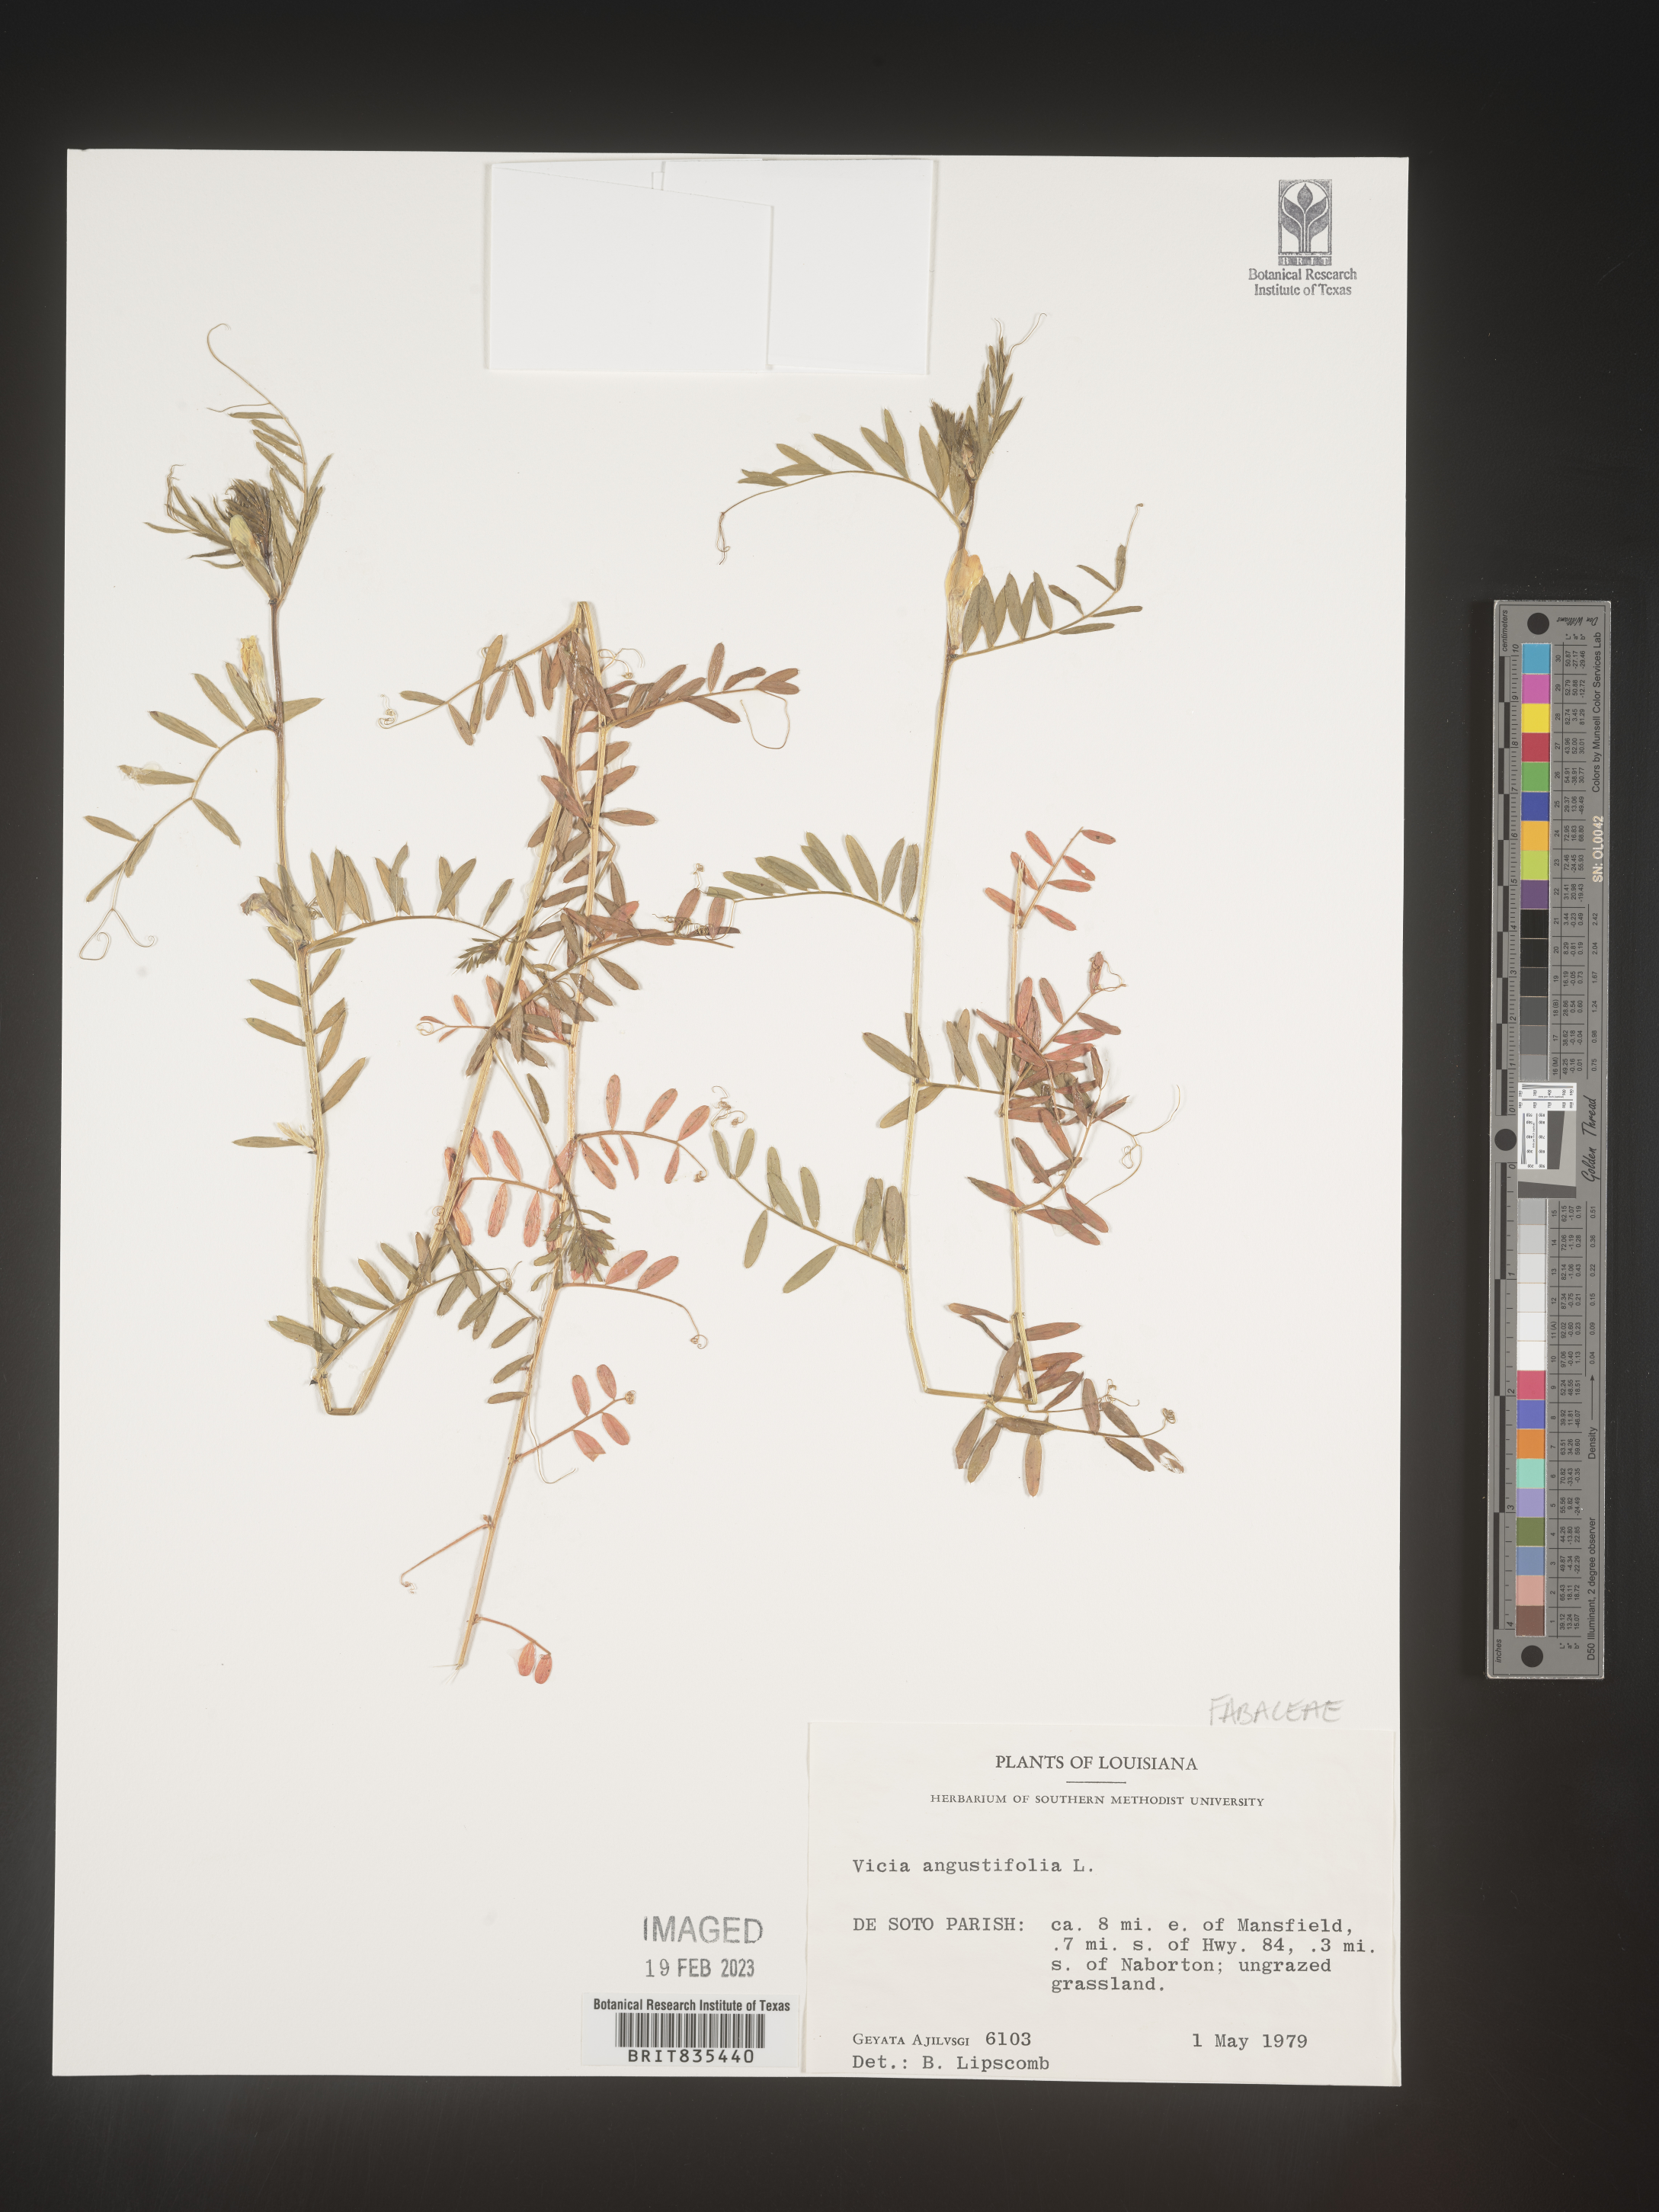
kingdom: Plantae
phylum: Tracheophyta
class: Magnoliopsida
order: Fabales
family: Fabaceae
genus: Vicia
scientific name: Vicia sativa
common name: Garden vetch
